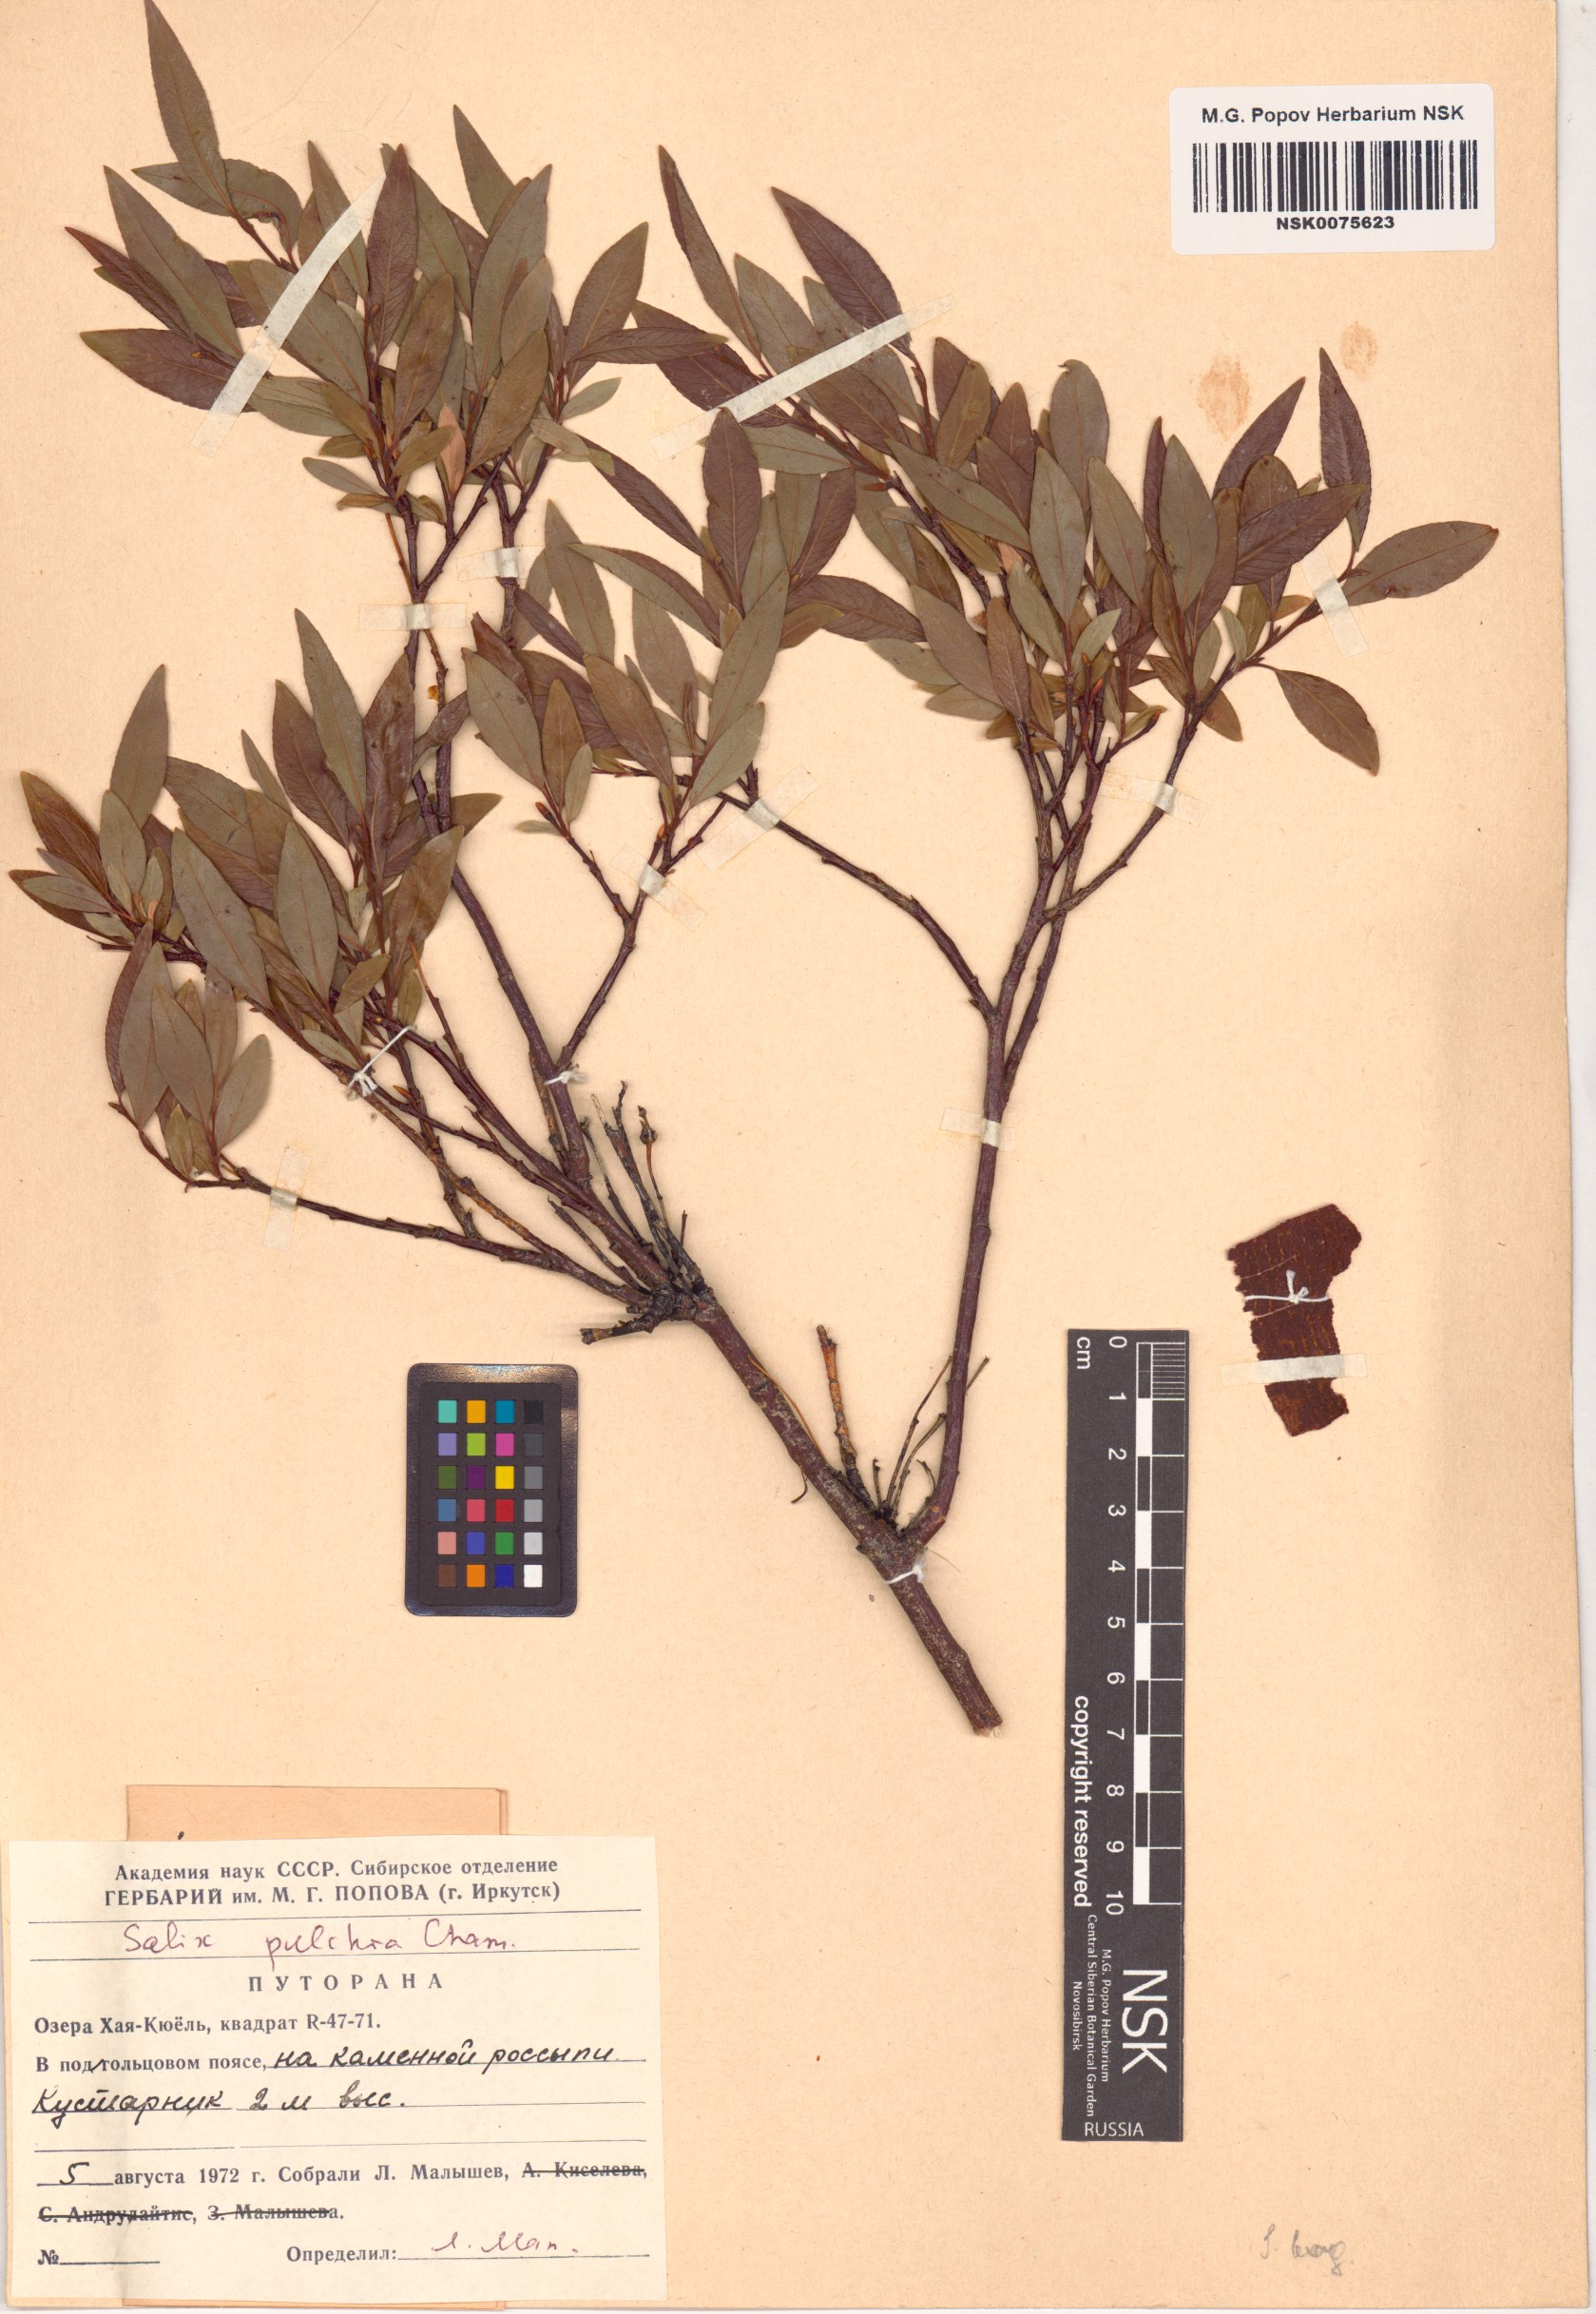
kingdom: Plantae
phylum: Tracheophyta
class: Magnoliopsida
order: Malpighiales
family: Salicaceae
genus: Salix
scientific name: Salix pulchra
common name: Diamond-leaved willow
